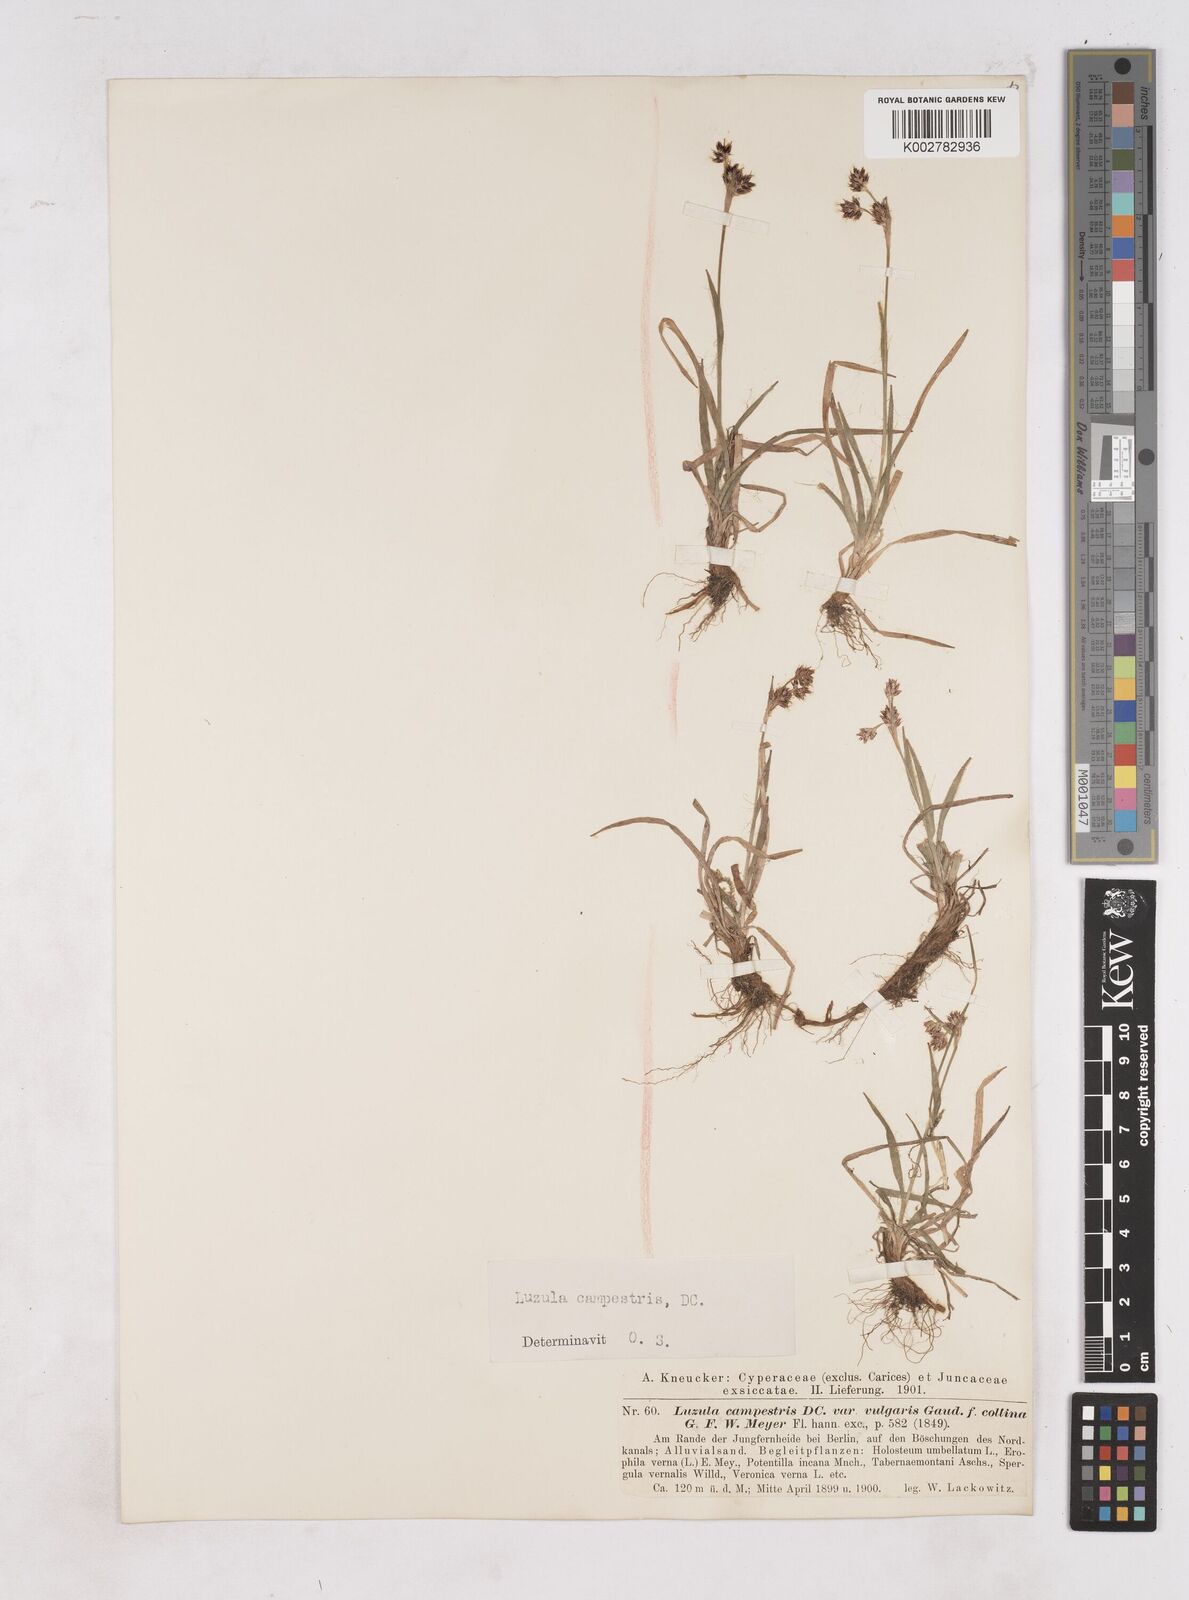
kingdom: Plantae
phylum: Tracheophyta
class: Liliopsida
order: Poales
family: Juncaceae
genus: Luzula
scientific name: Luzula campestris
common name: Field wood-rush
